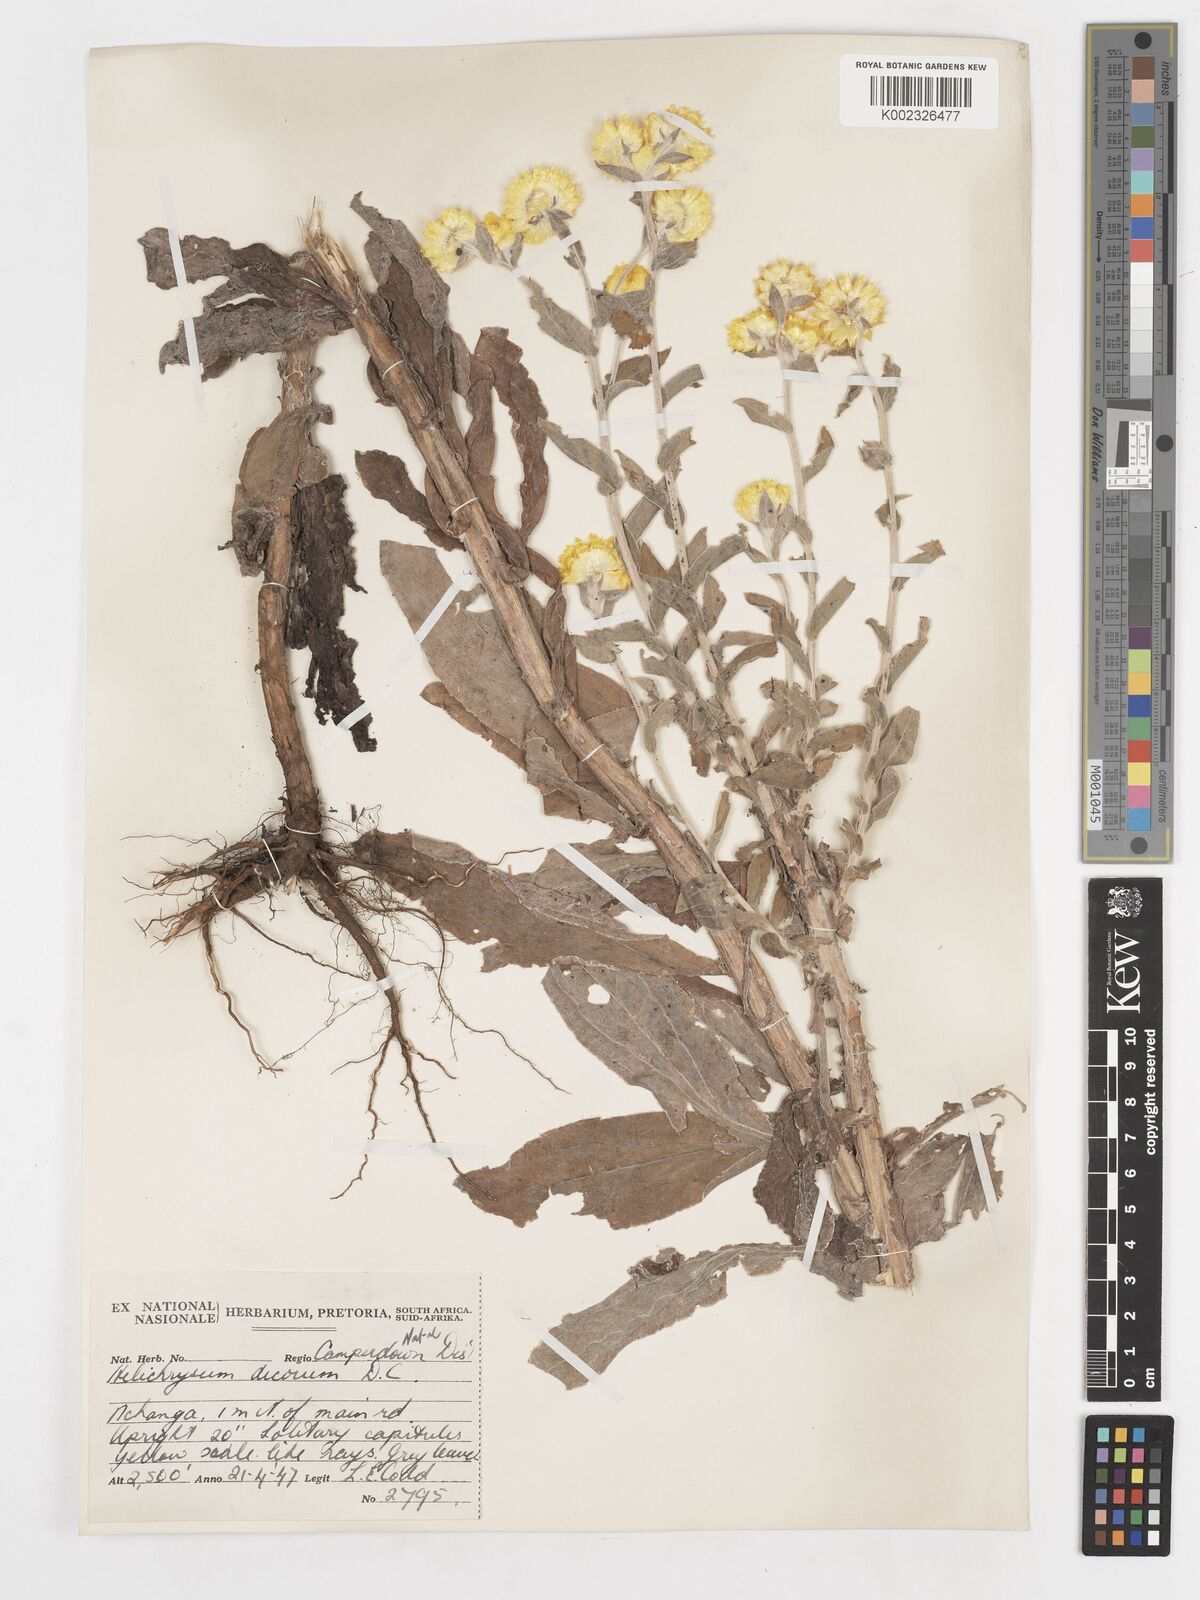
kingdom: Plantae
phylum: Tracheophyta
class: Magnoliopsida
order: Asterales
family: Asteraceae
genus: Helichrysum
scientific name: Helichrysum decorum
